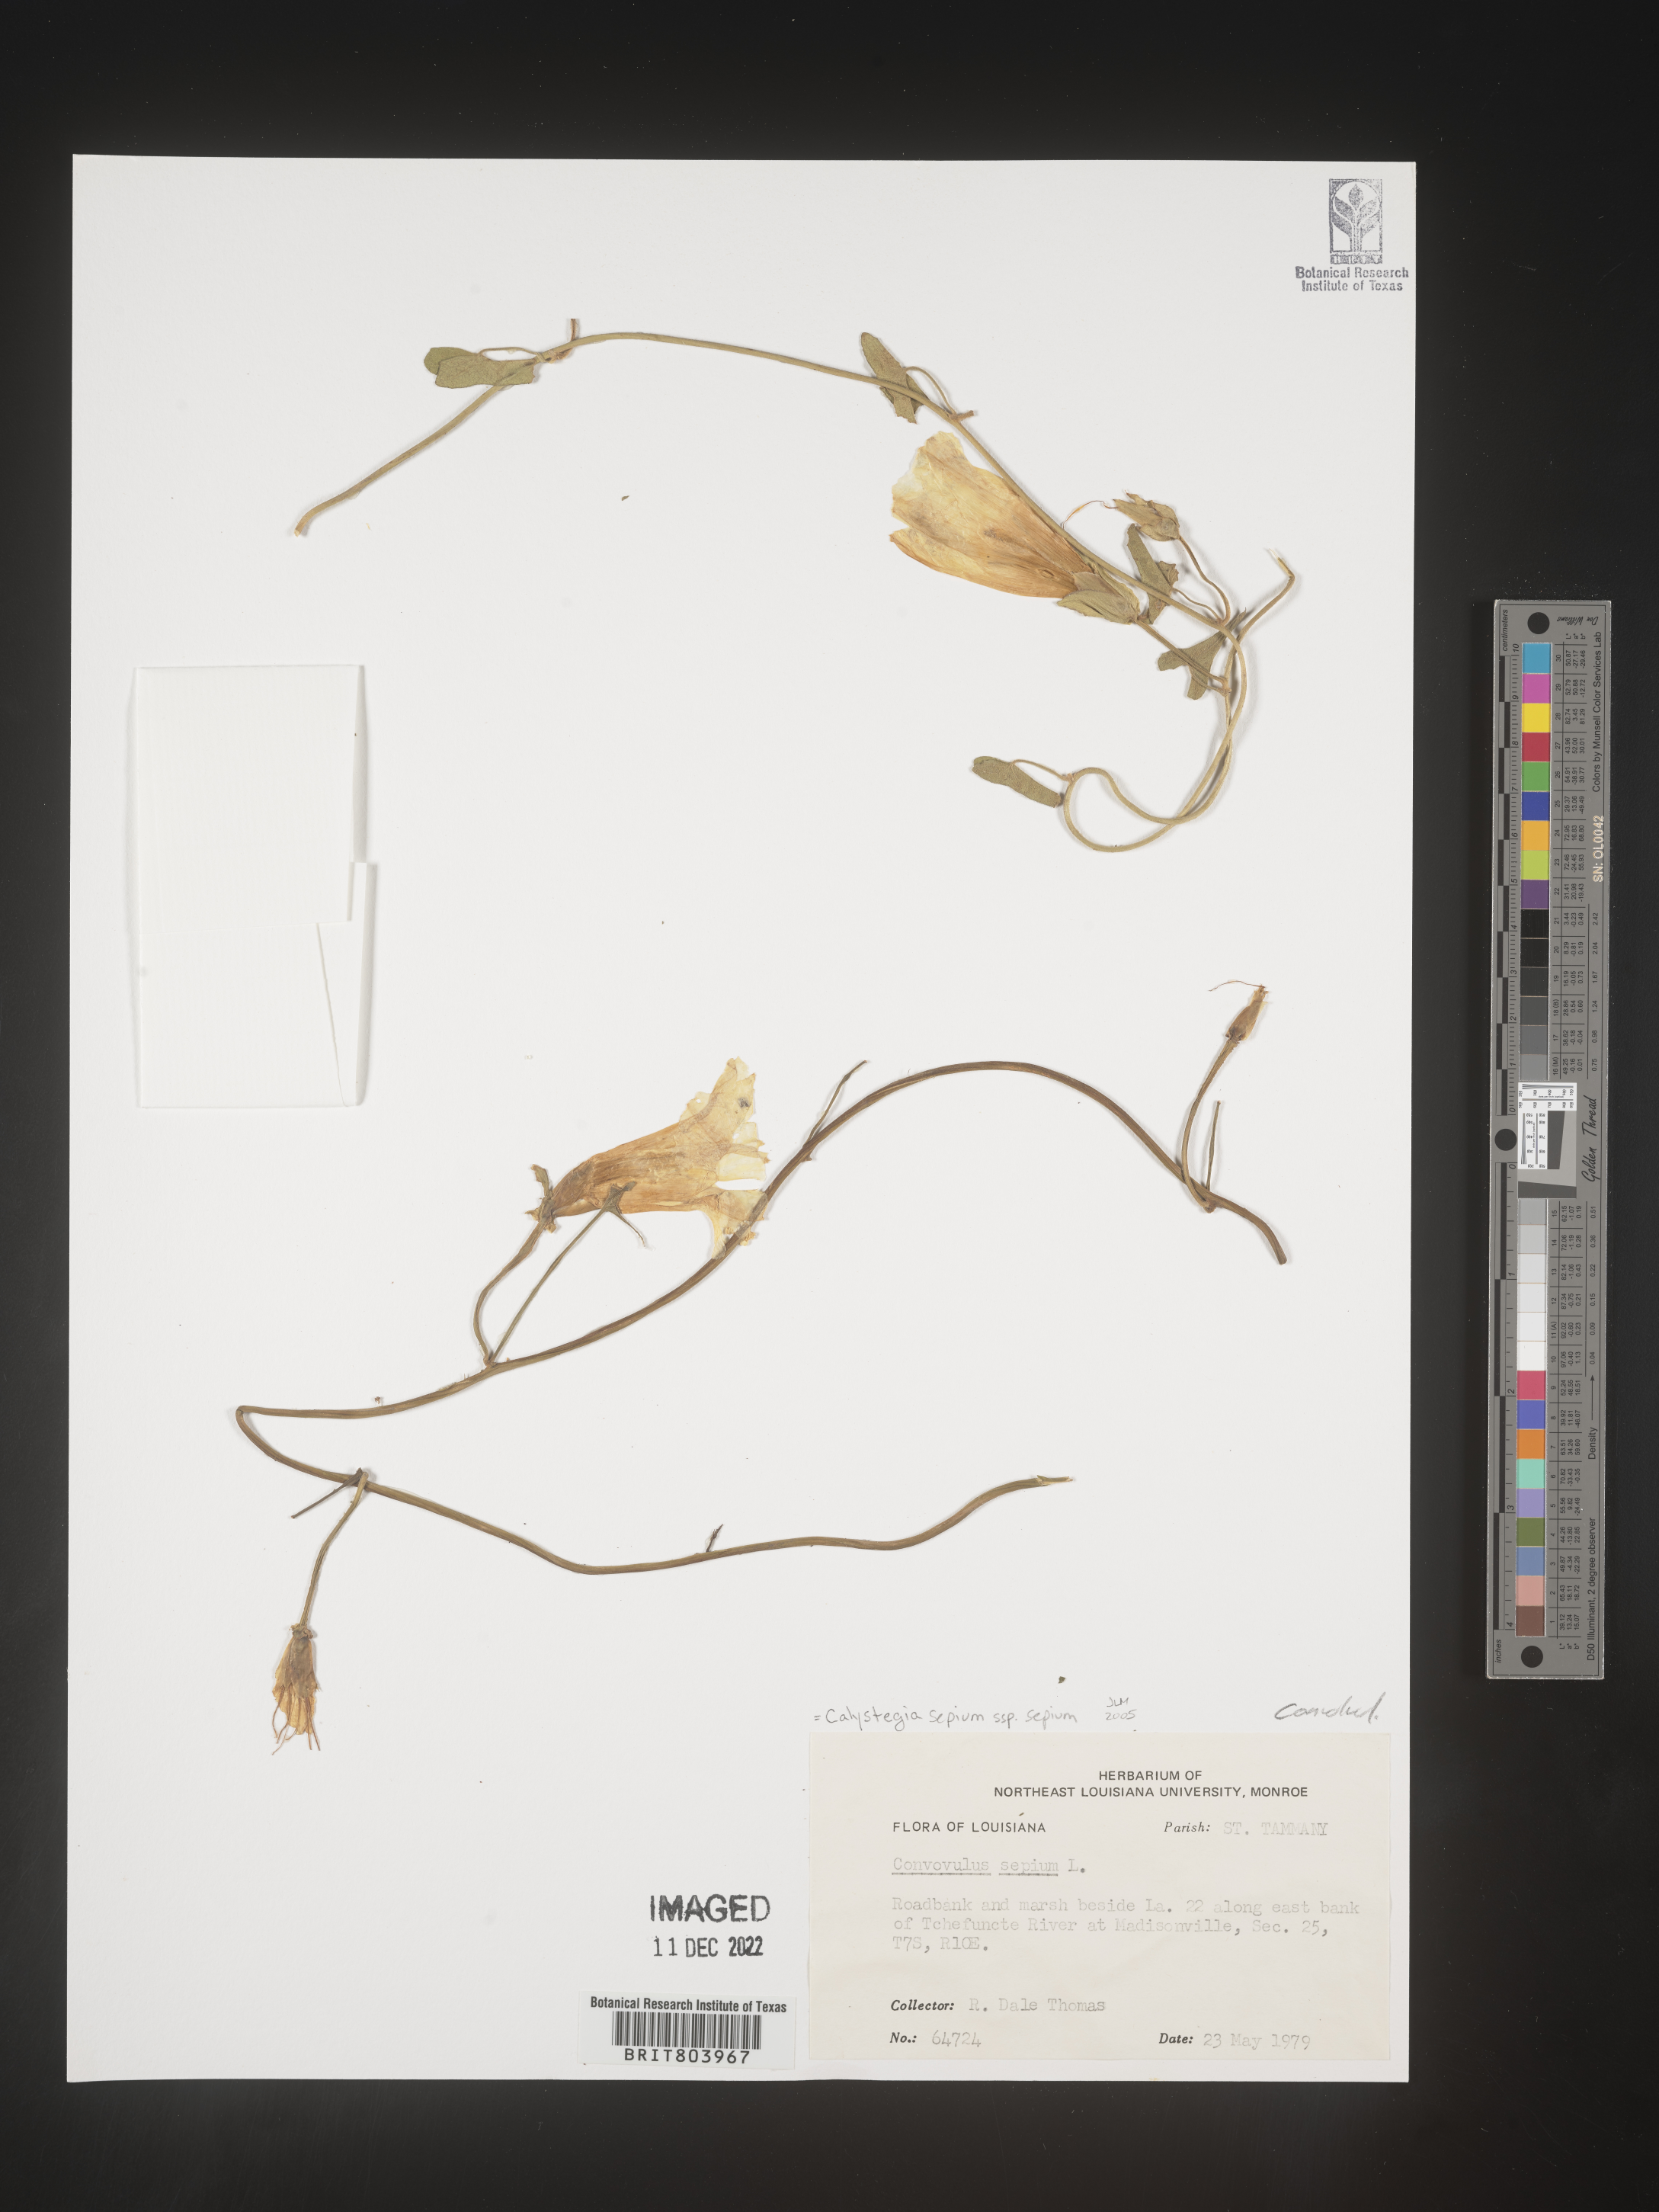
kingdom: Plantae
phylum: Tracheophyta
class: Magnoliopsida
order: Solanales
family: Convolvulaceae
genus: Calystegia
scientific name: Calystegia sepium
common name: Hedge bindweed
